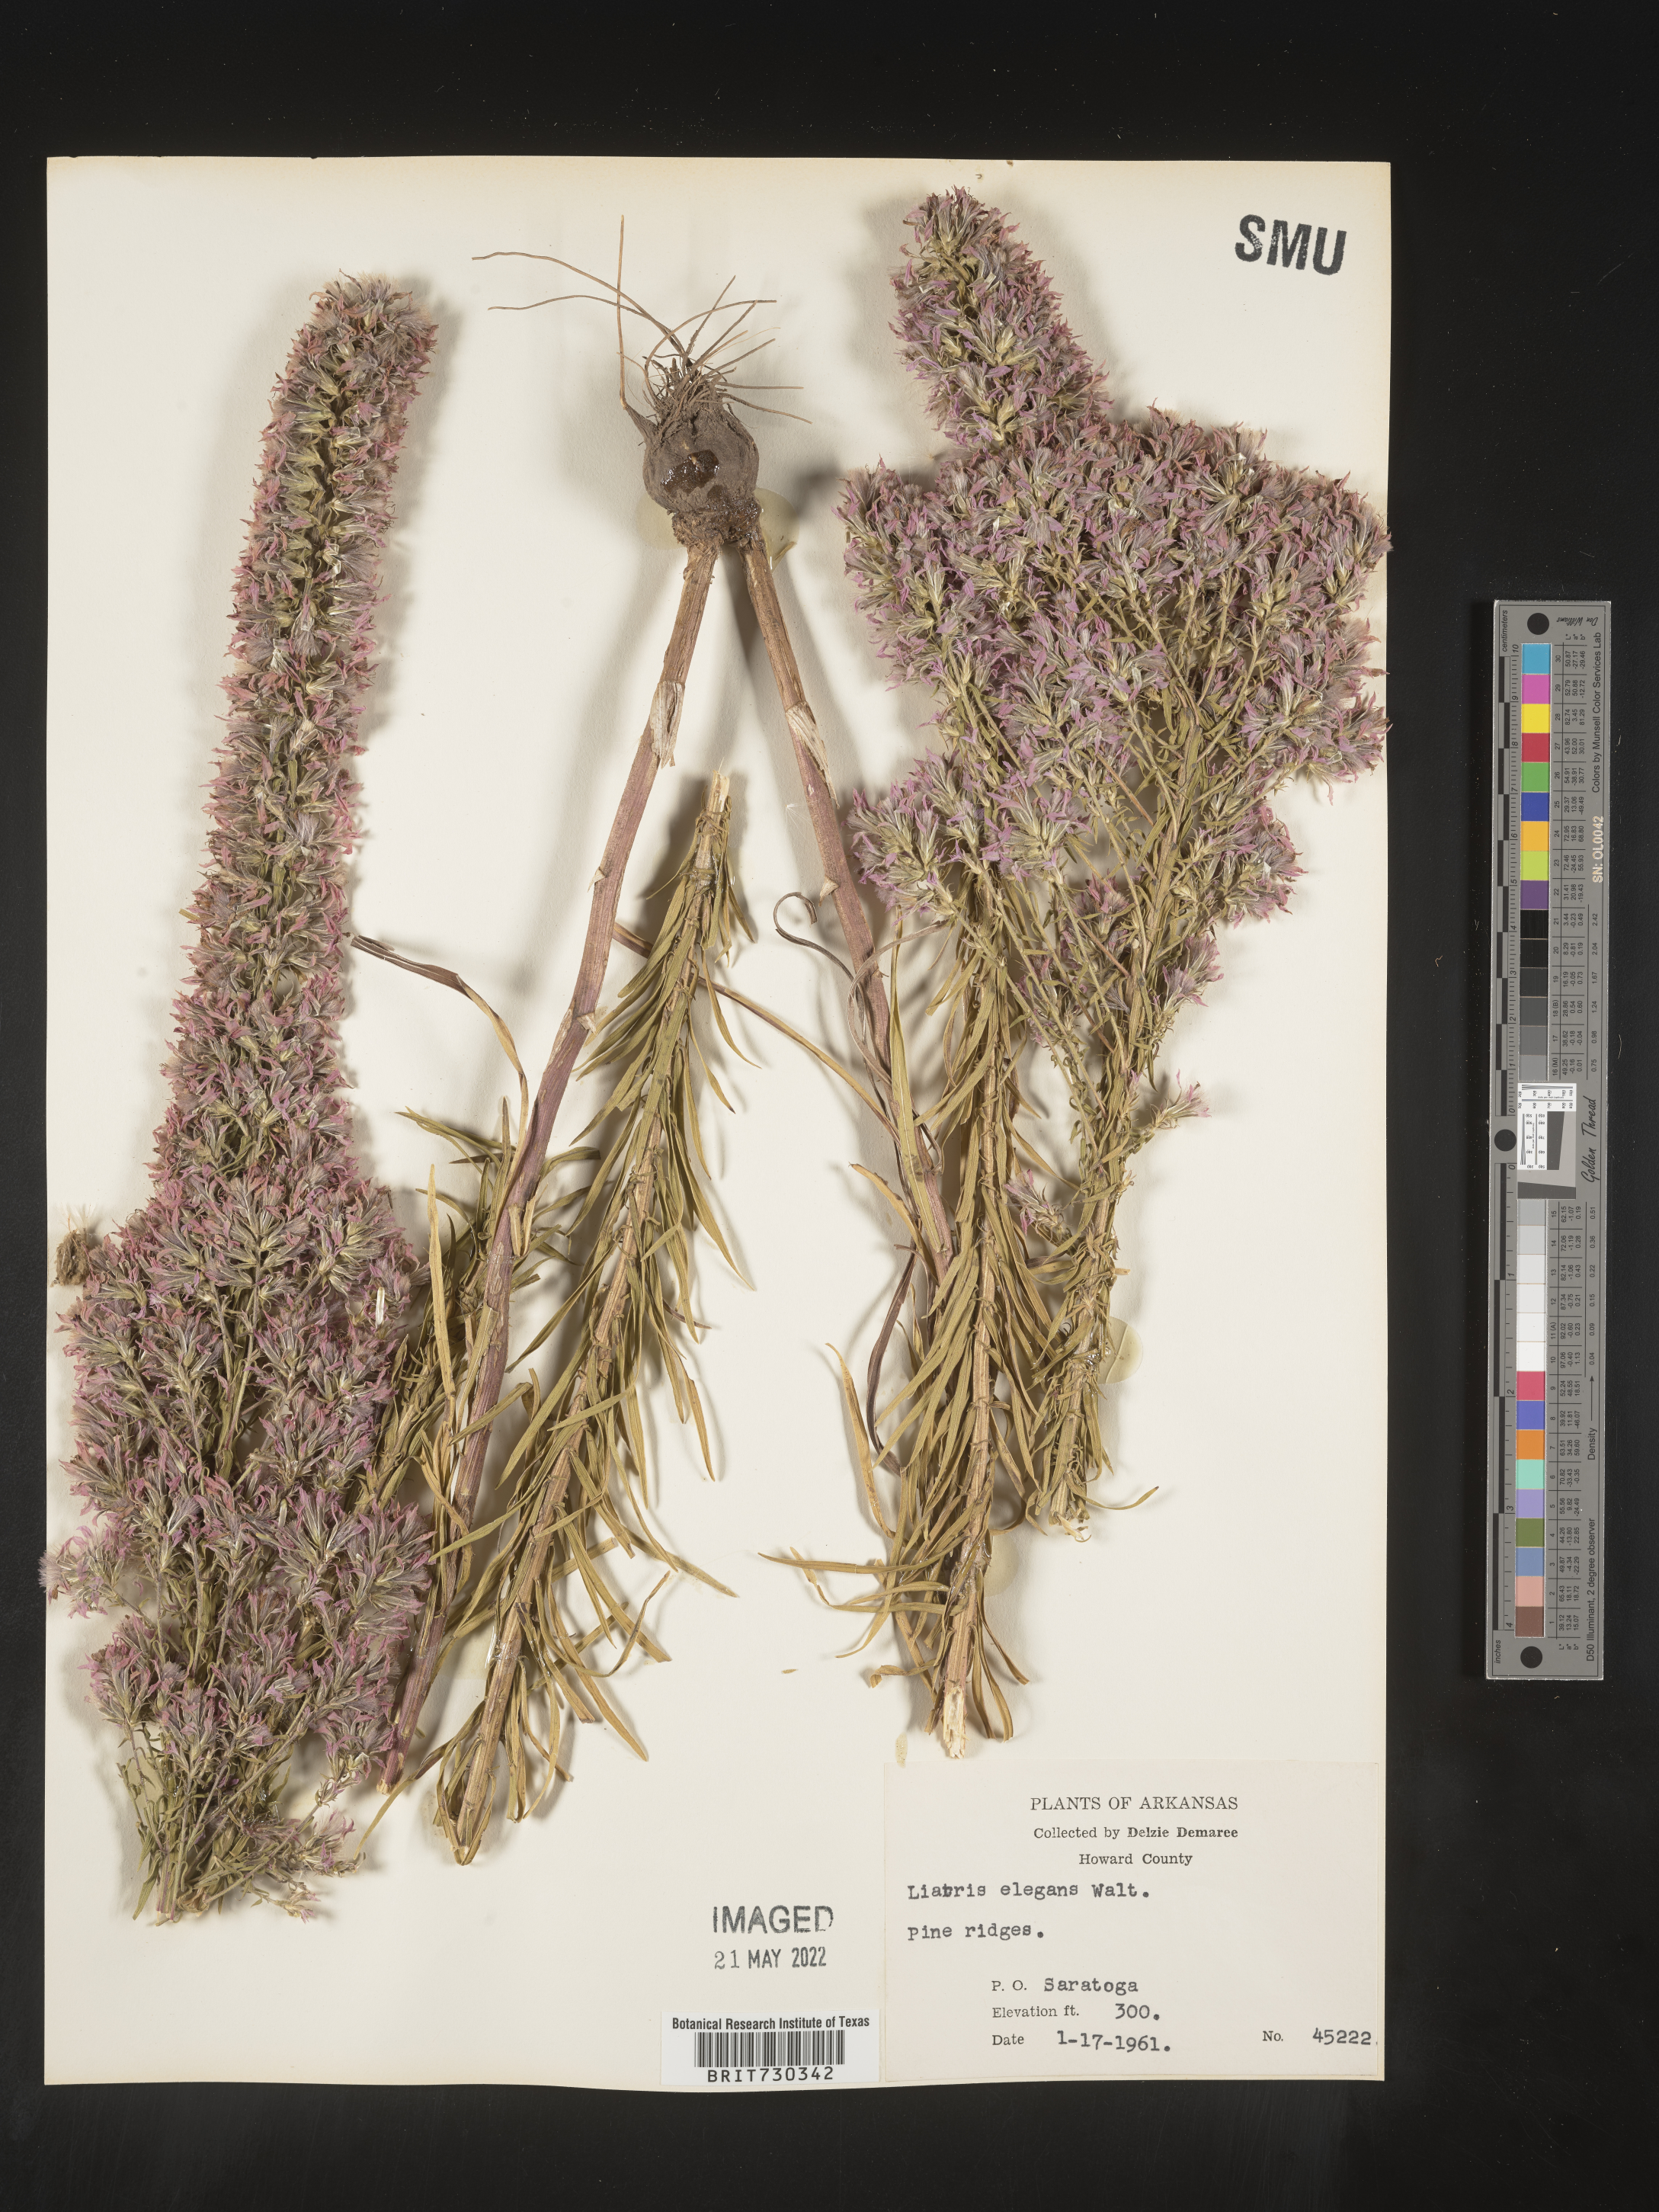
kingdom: Plantae
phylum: Tracheophyta
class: Magnoliopsida
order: Asterales
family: Asteraceae
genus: Liatris
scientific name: Liatris elegans
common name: Pinkscale gayfeather
